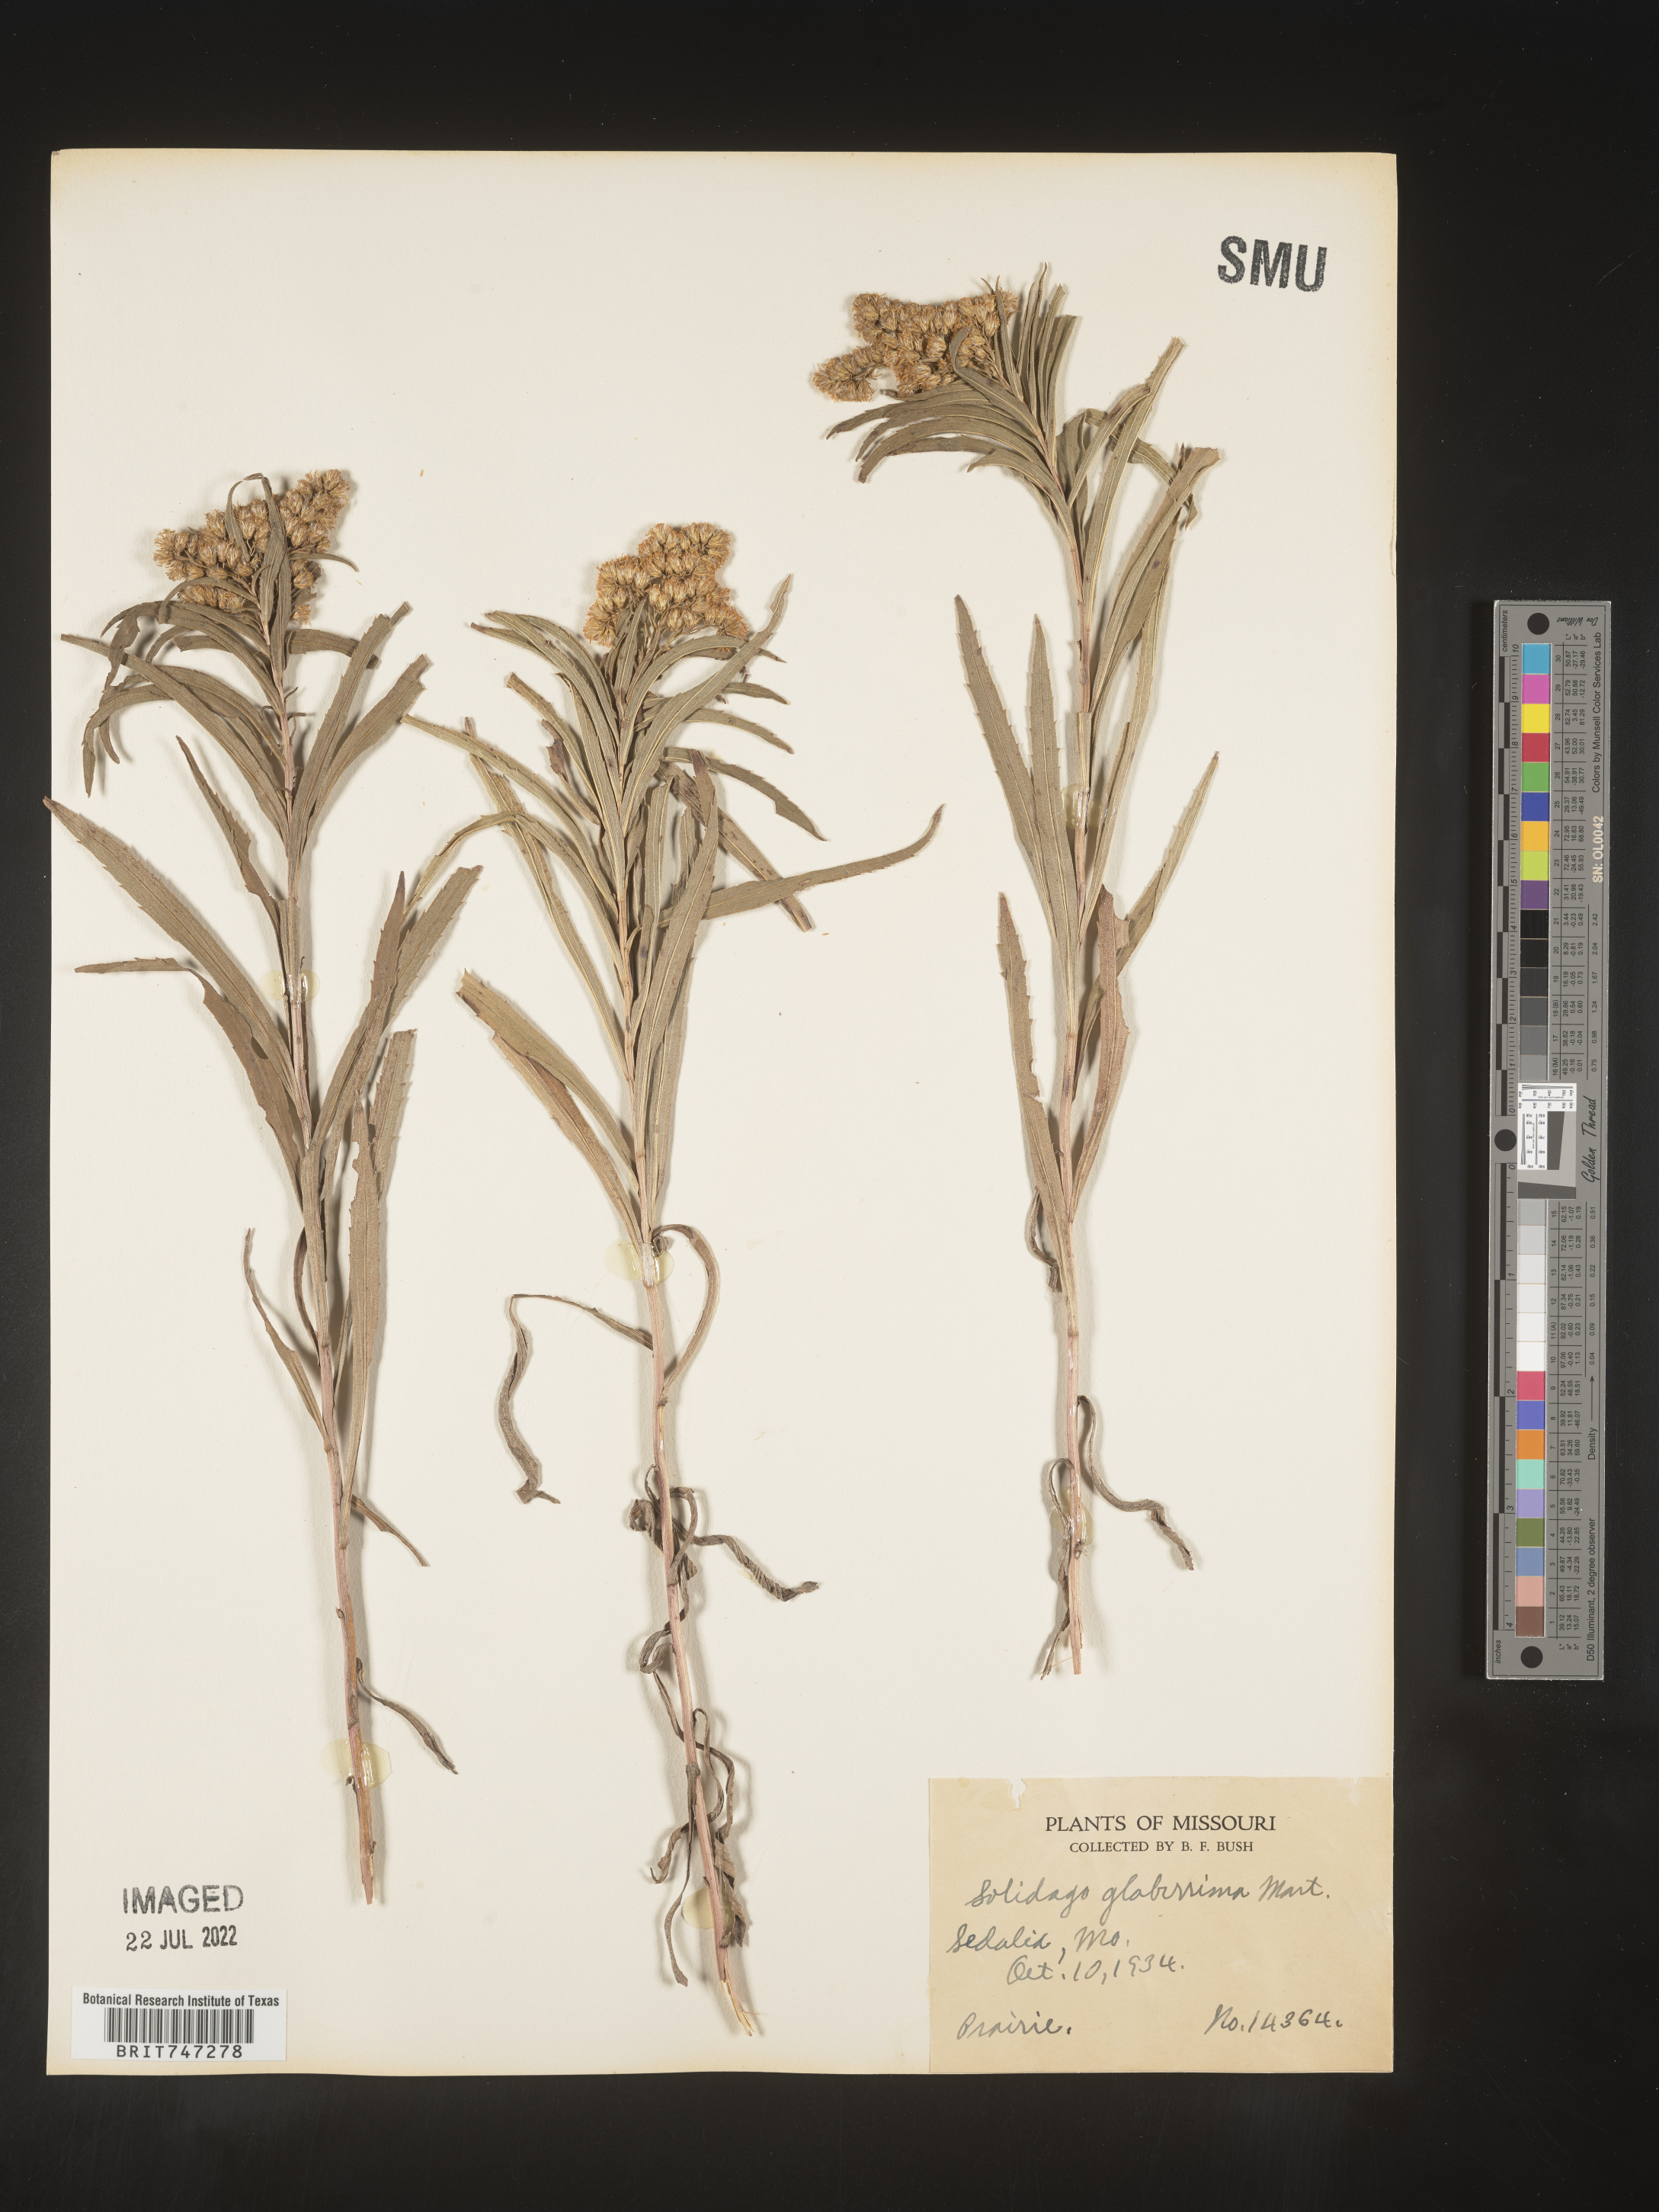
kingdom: Plantae
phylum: Tracheophyta
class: Magnoliopsida
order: Asterales
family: Asteraceae
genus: Solidago
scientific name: Solidago missouriensis
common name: Prairie goldenrod
